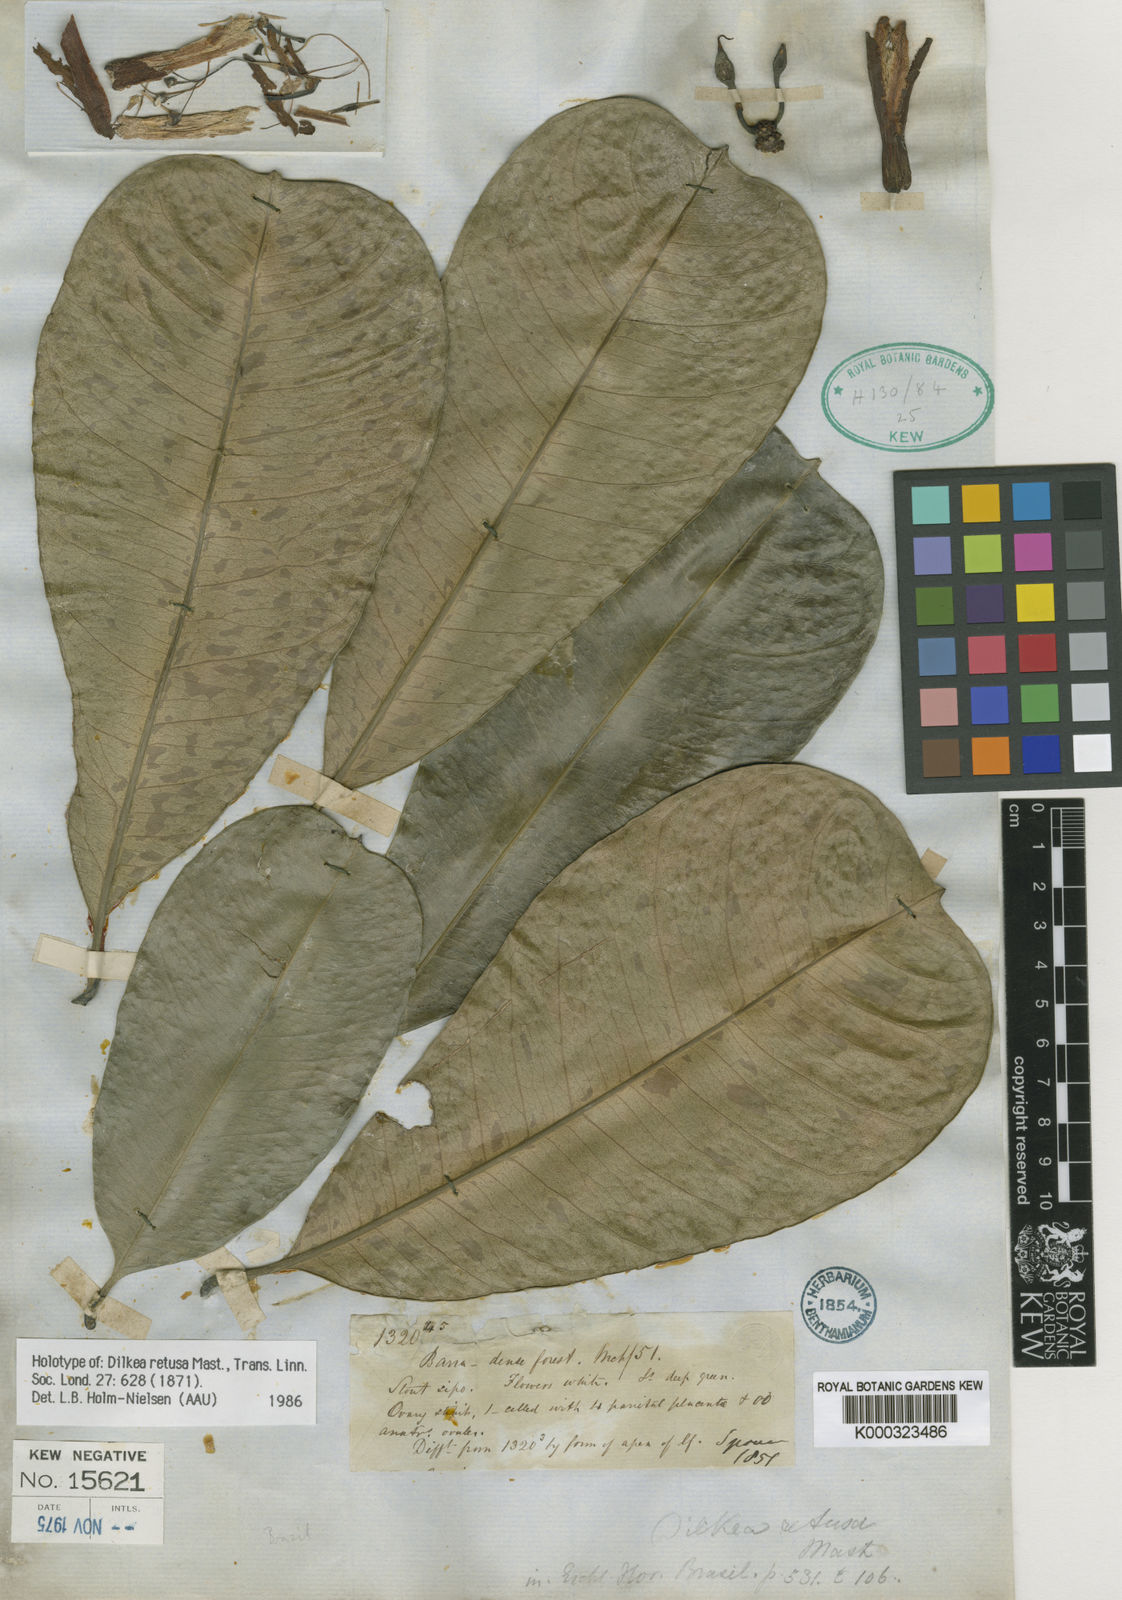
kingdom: Plantae
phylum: Tracheophyta
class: Magnoliopsida
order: Malpighiales
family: Passifloraceae
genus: Dilkea
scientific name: Dilkea retusa
